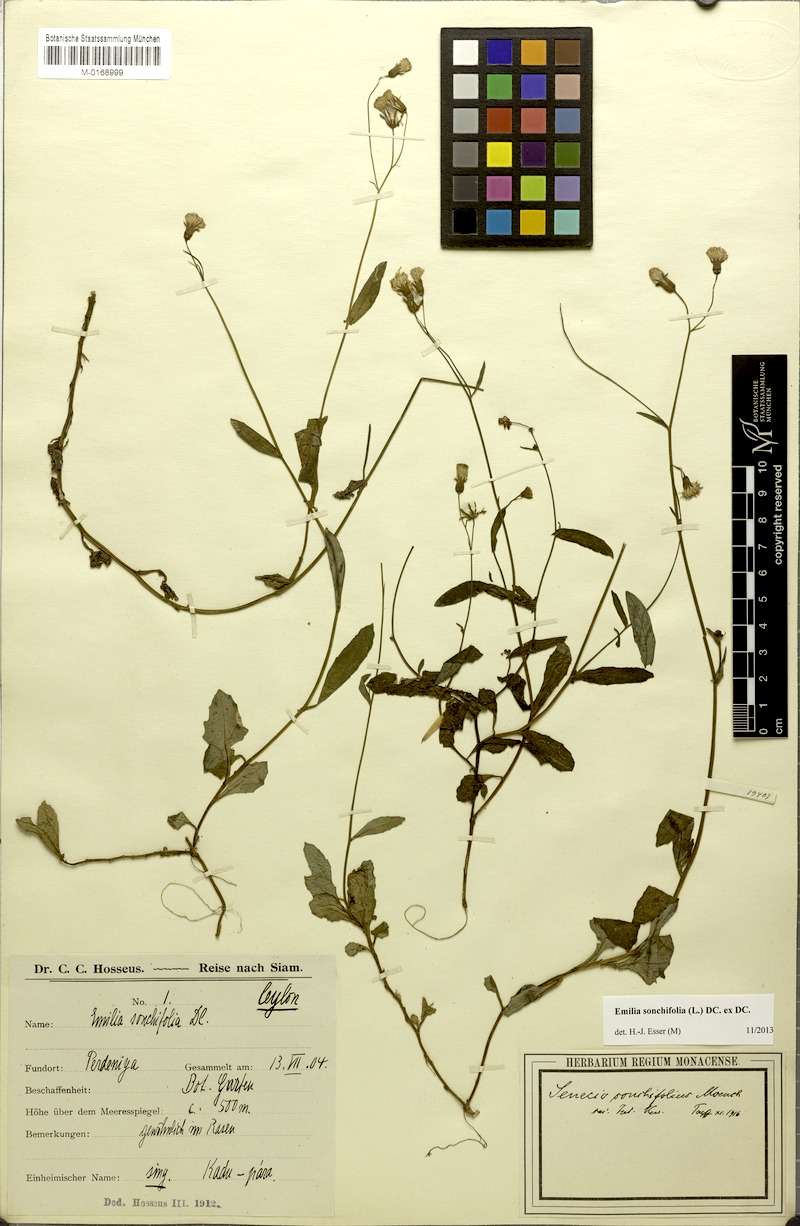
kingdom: Plantae
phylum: Tracheophyta
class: Magnoliopsida
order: Asterales
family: Asteraceae
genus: Emilia
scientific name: Emilia sonchifolia
